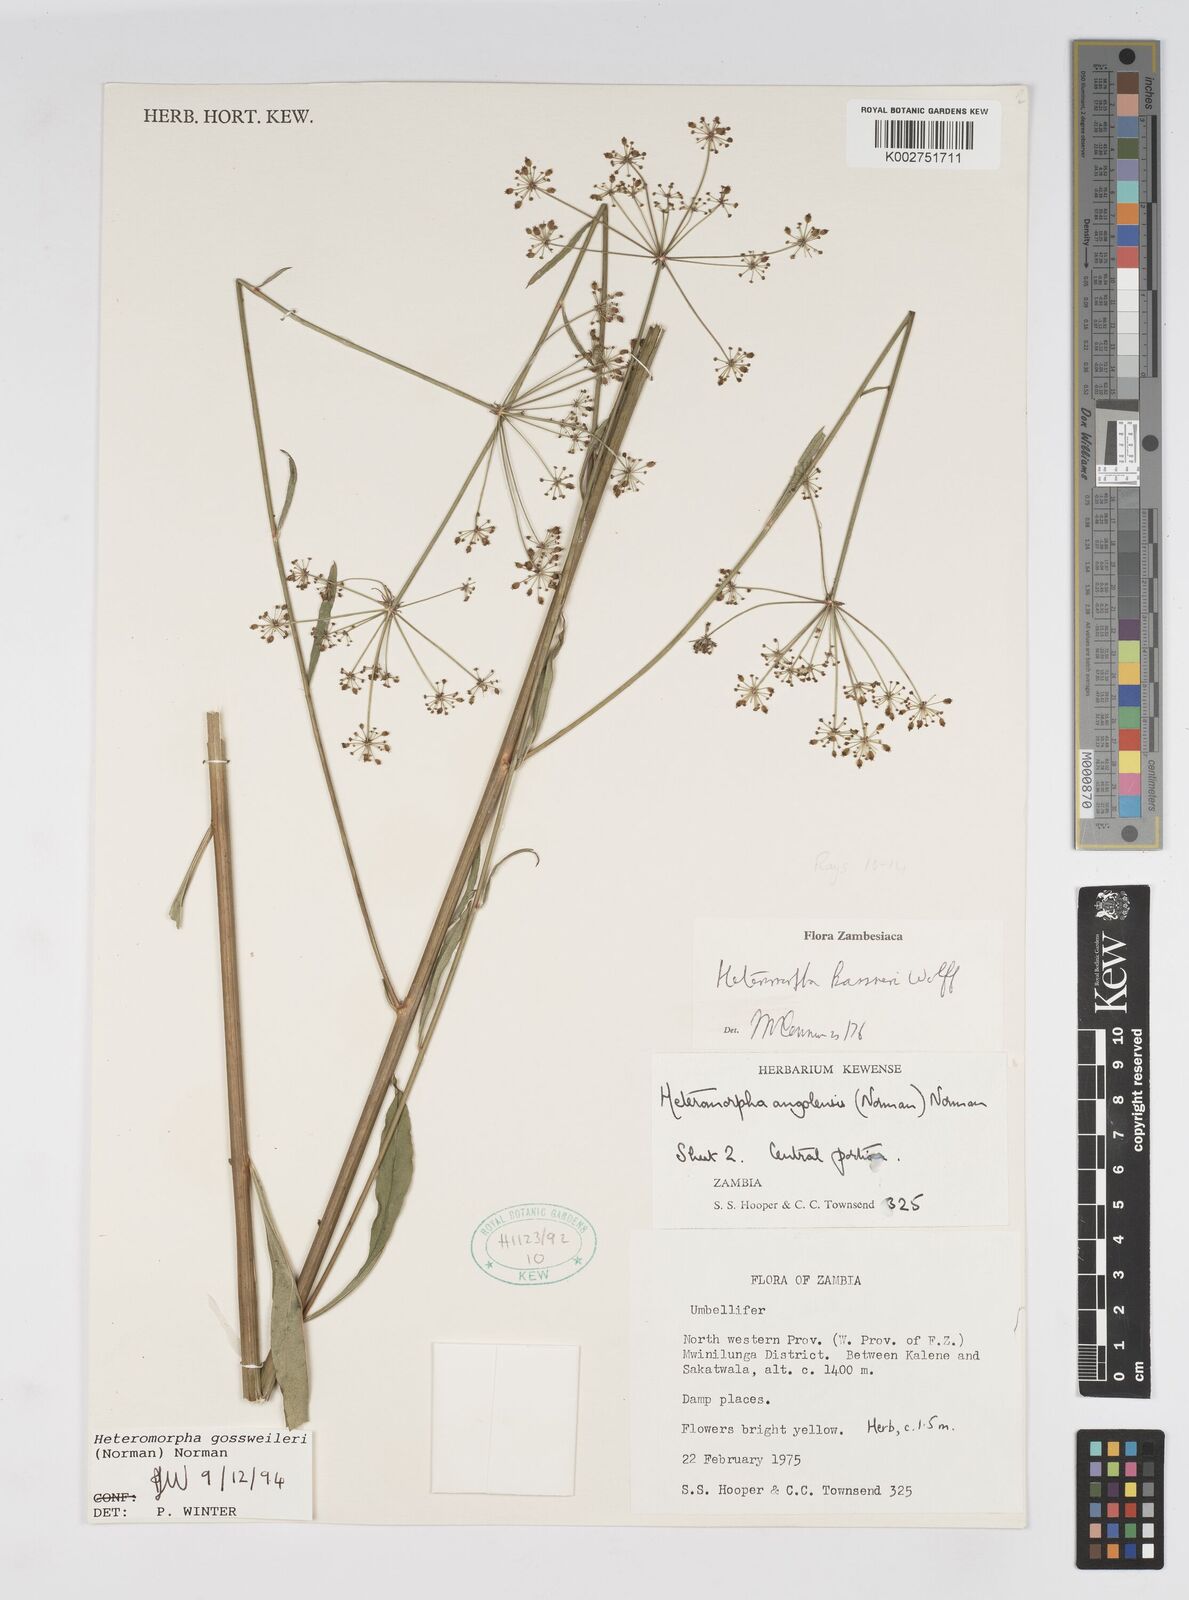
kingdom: Plantae
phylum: Tracheophyta
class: Magnoliopsida
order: Apiales
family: Apiaceae
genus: Heteromorpha
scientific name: Heteromorpha gossweileri
